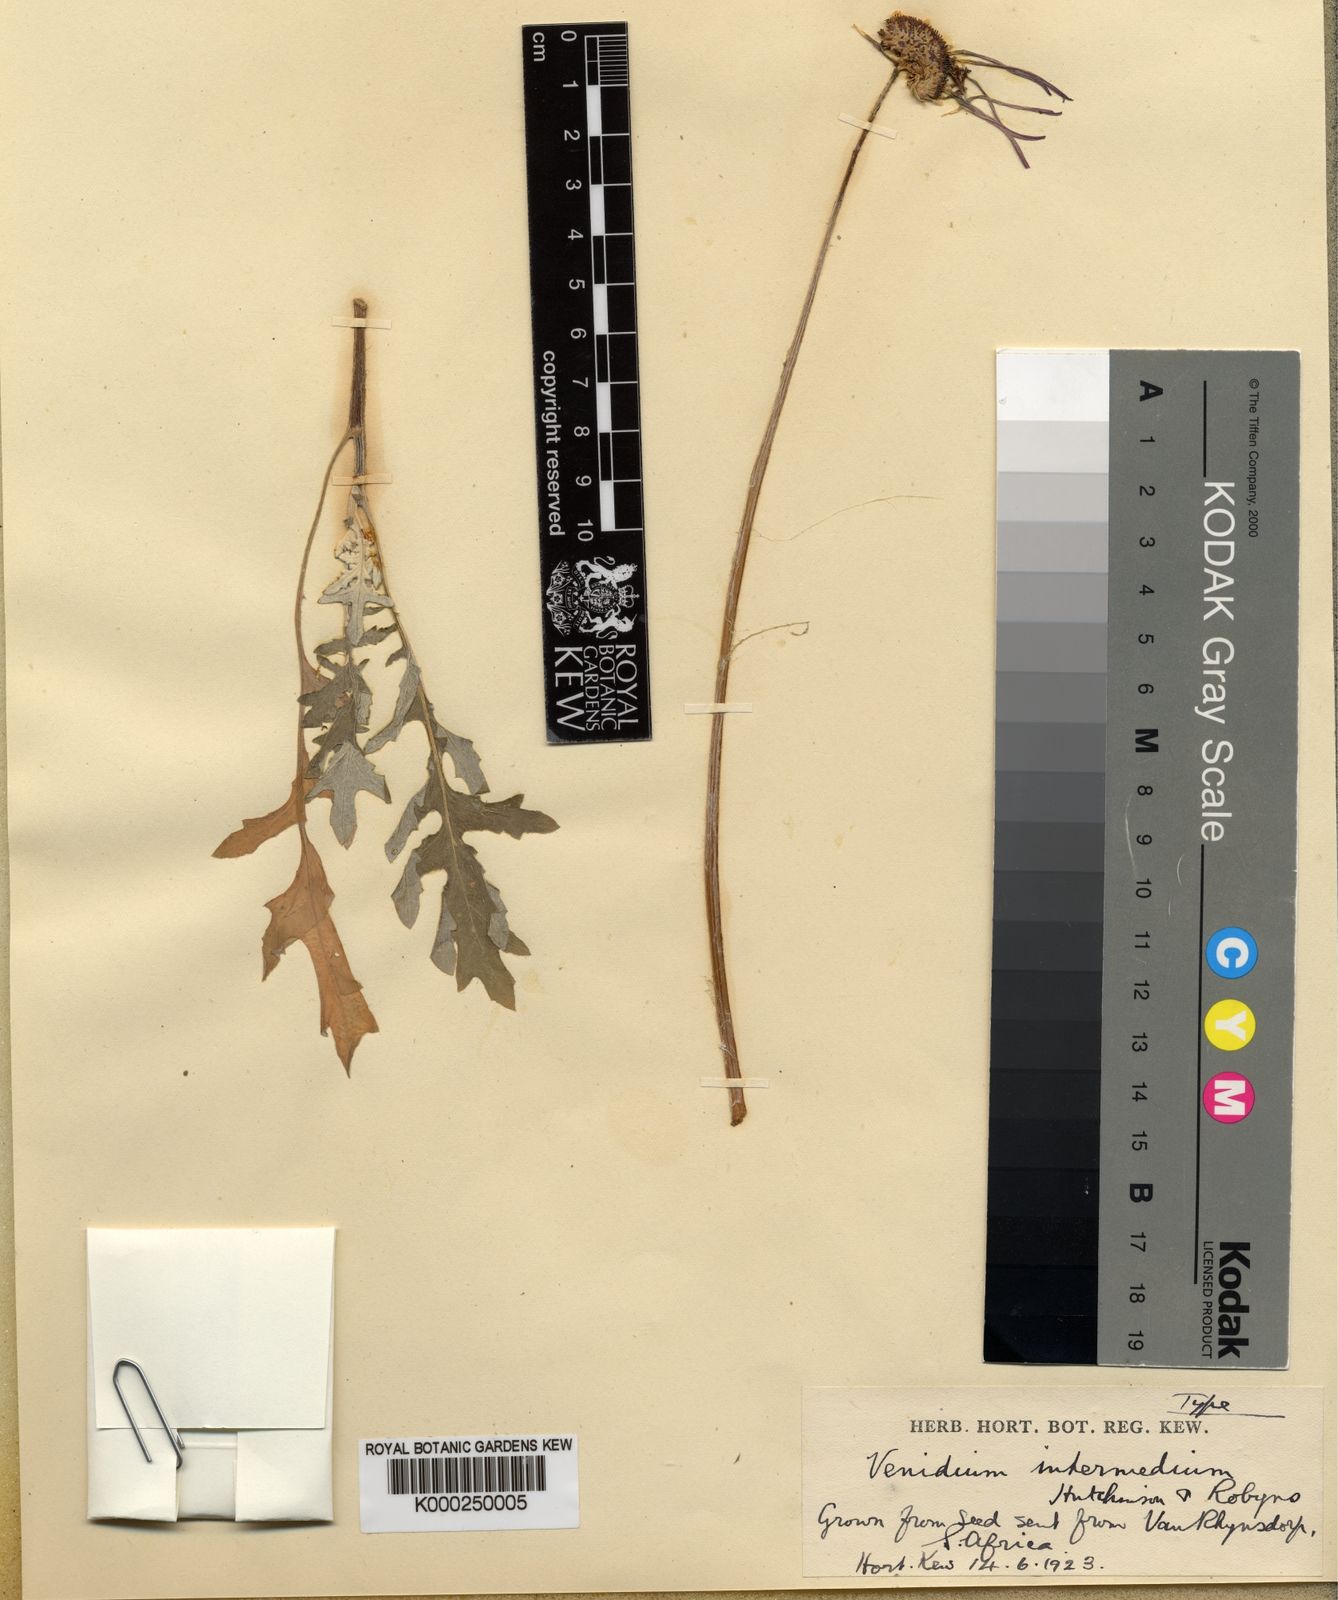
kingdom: Plantae
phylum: Tracheophyta
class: Magnoliopsida
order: Asterales
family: Asteraceae
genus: Arctotheca
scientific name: Arctotheca calendula
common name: Capeweed
